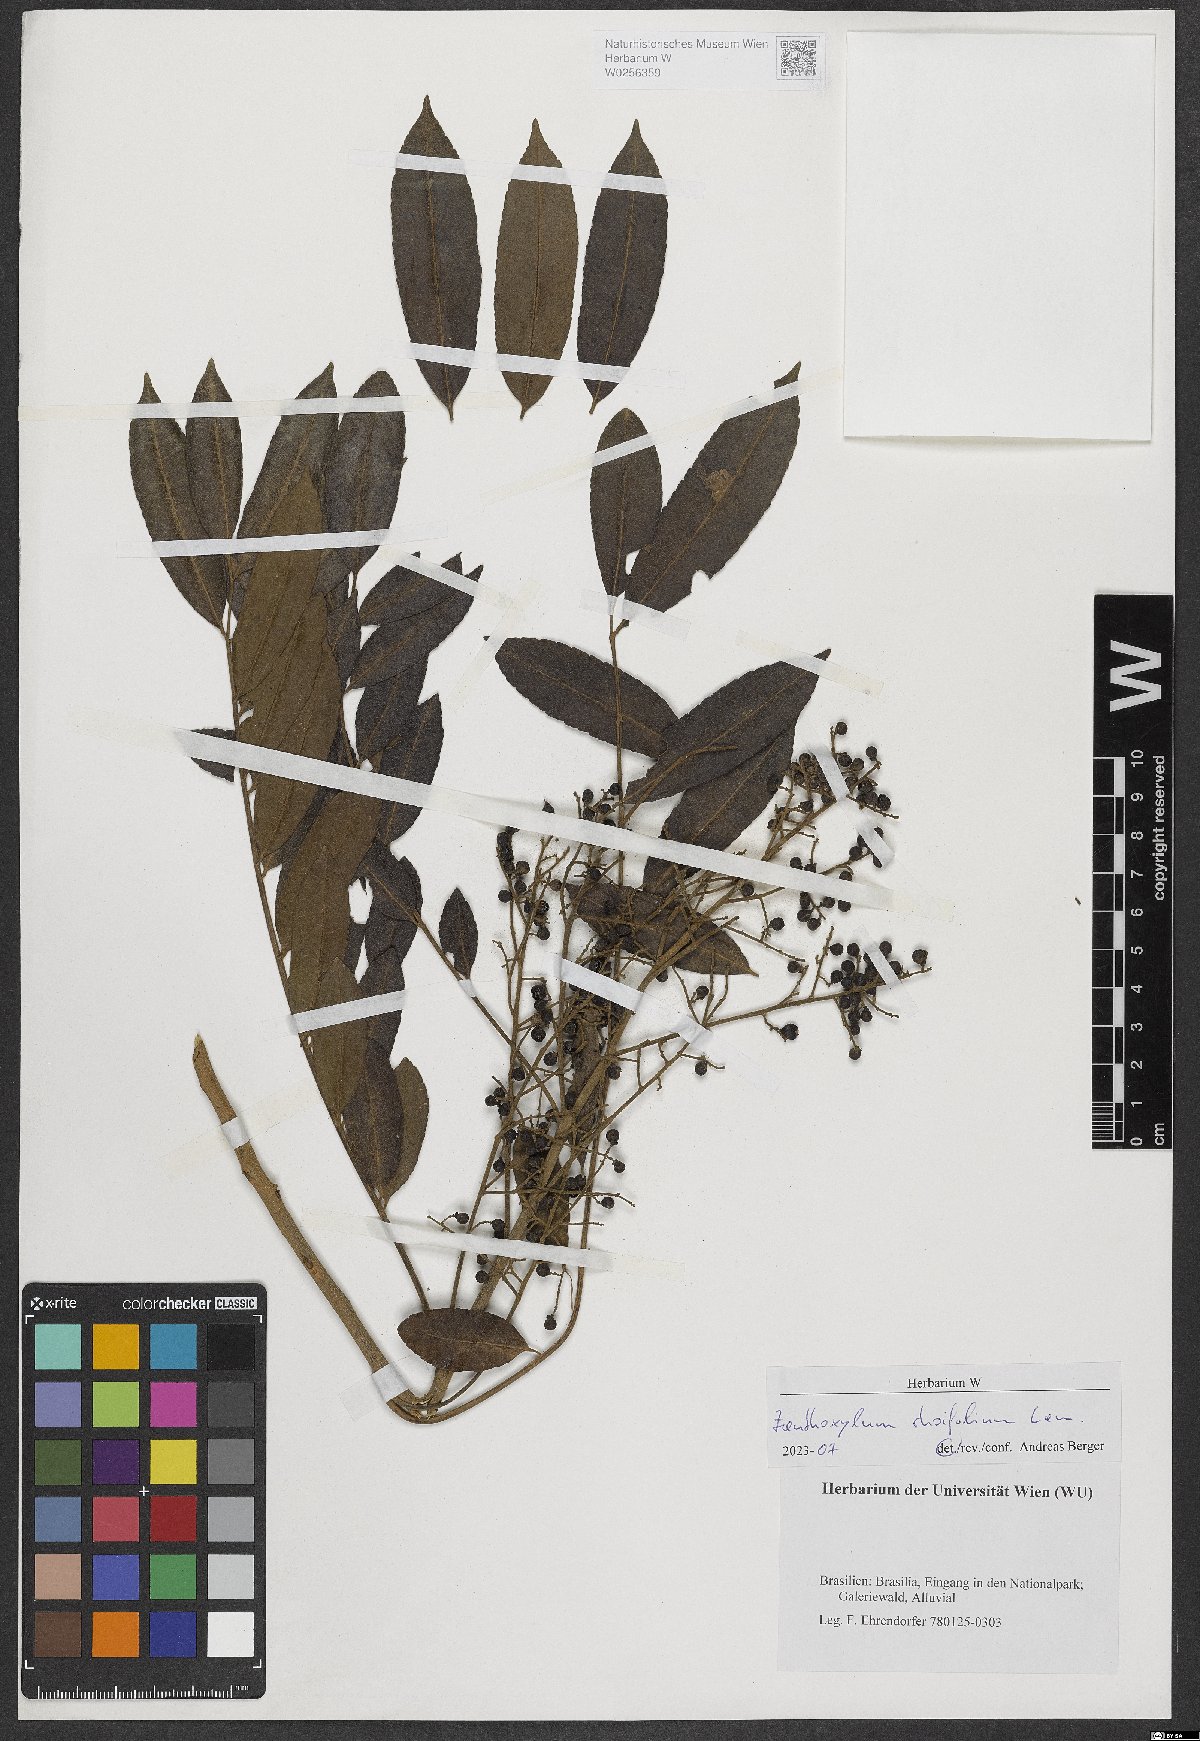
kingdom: Plantae
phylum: Tracheophyta
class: Magnoliopsida
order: Sapindales
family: Rutaceae
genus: Zanthoxylum
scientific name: Zanthoxylum rhoifolium
